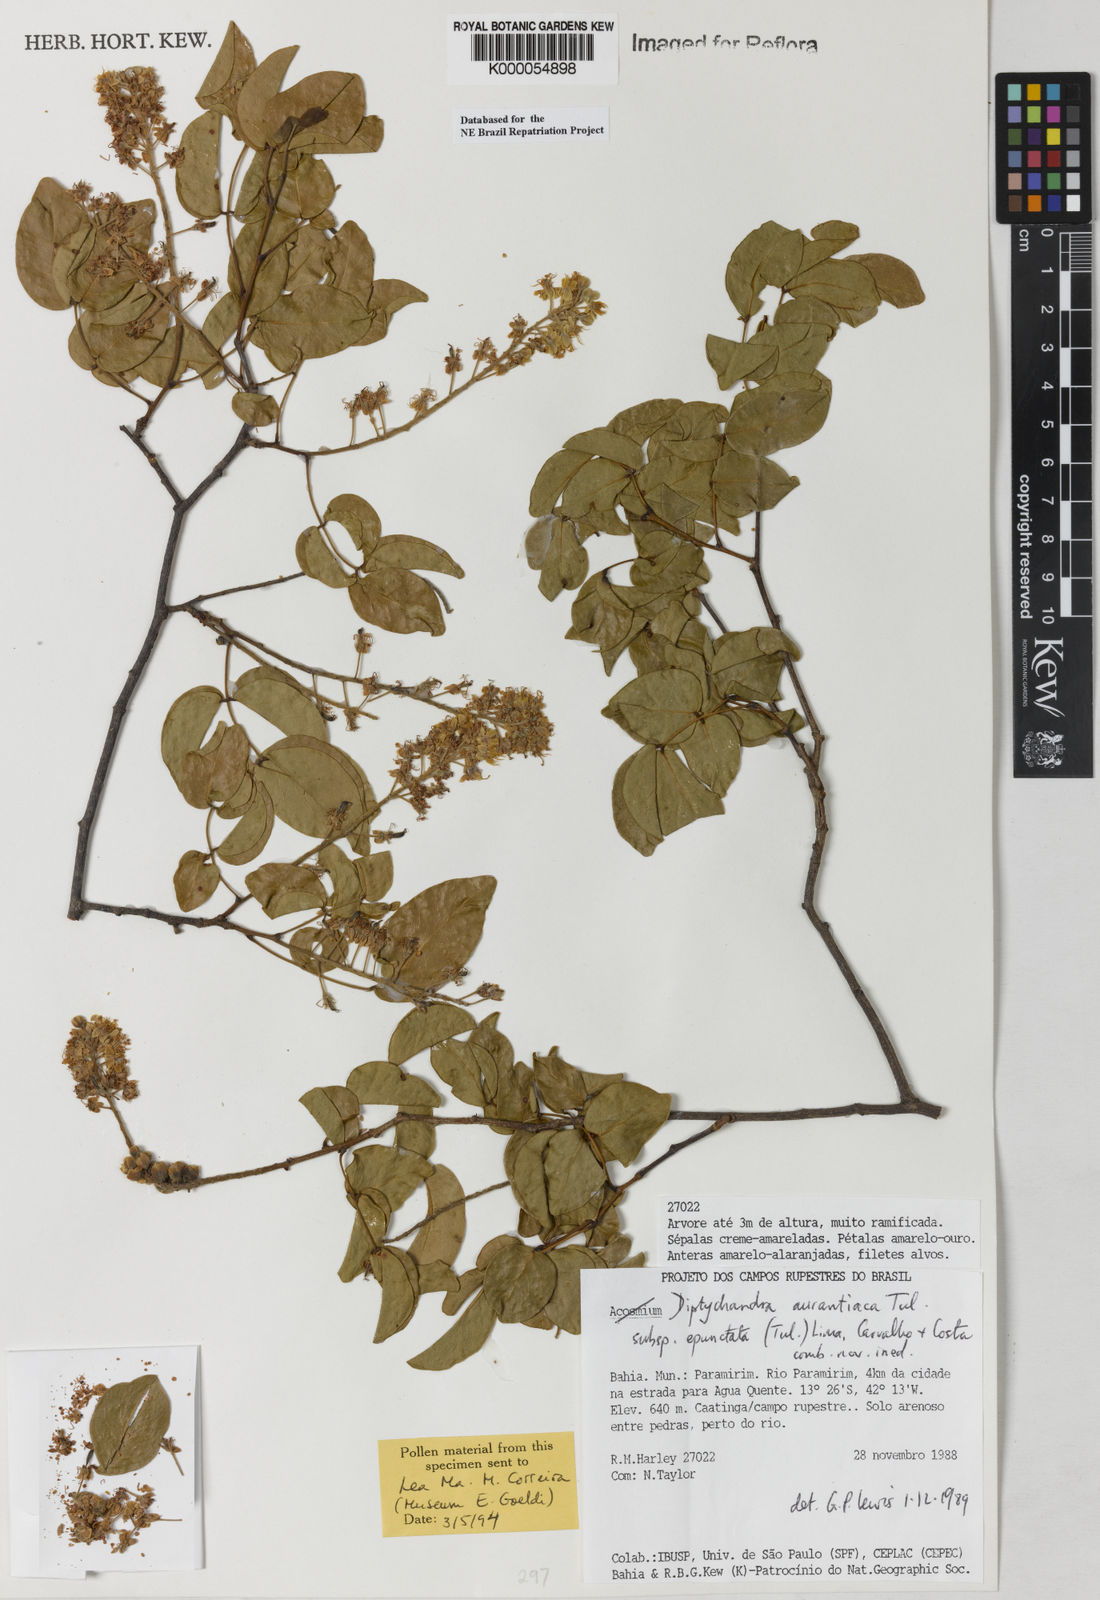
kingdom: Plantae
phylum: Tracheophyta
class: Magnoliopsida
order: Fabales
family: Fabaceae
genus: Diptychandra
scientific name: Diptychandra aurantiaca
